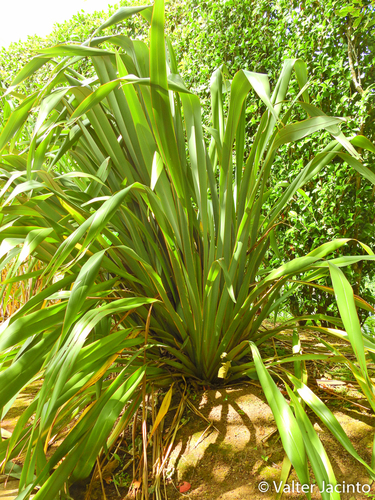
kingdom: Plantae
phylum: Tracheophyta
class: Liliopsida
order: Asparagales
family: Asphodelaceae
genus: Phormium
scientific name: Phormium tenax
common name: New zealand flax
